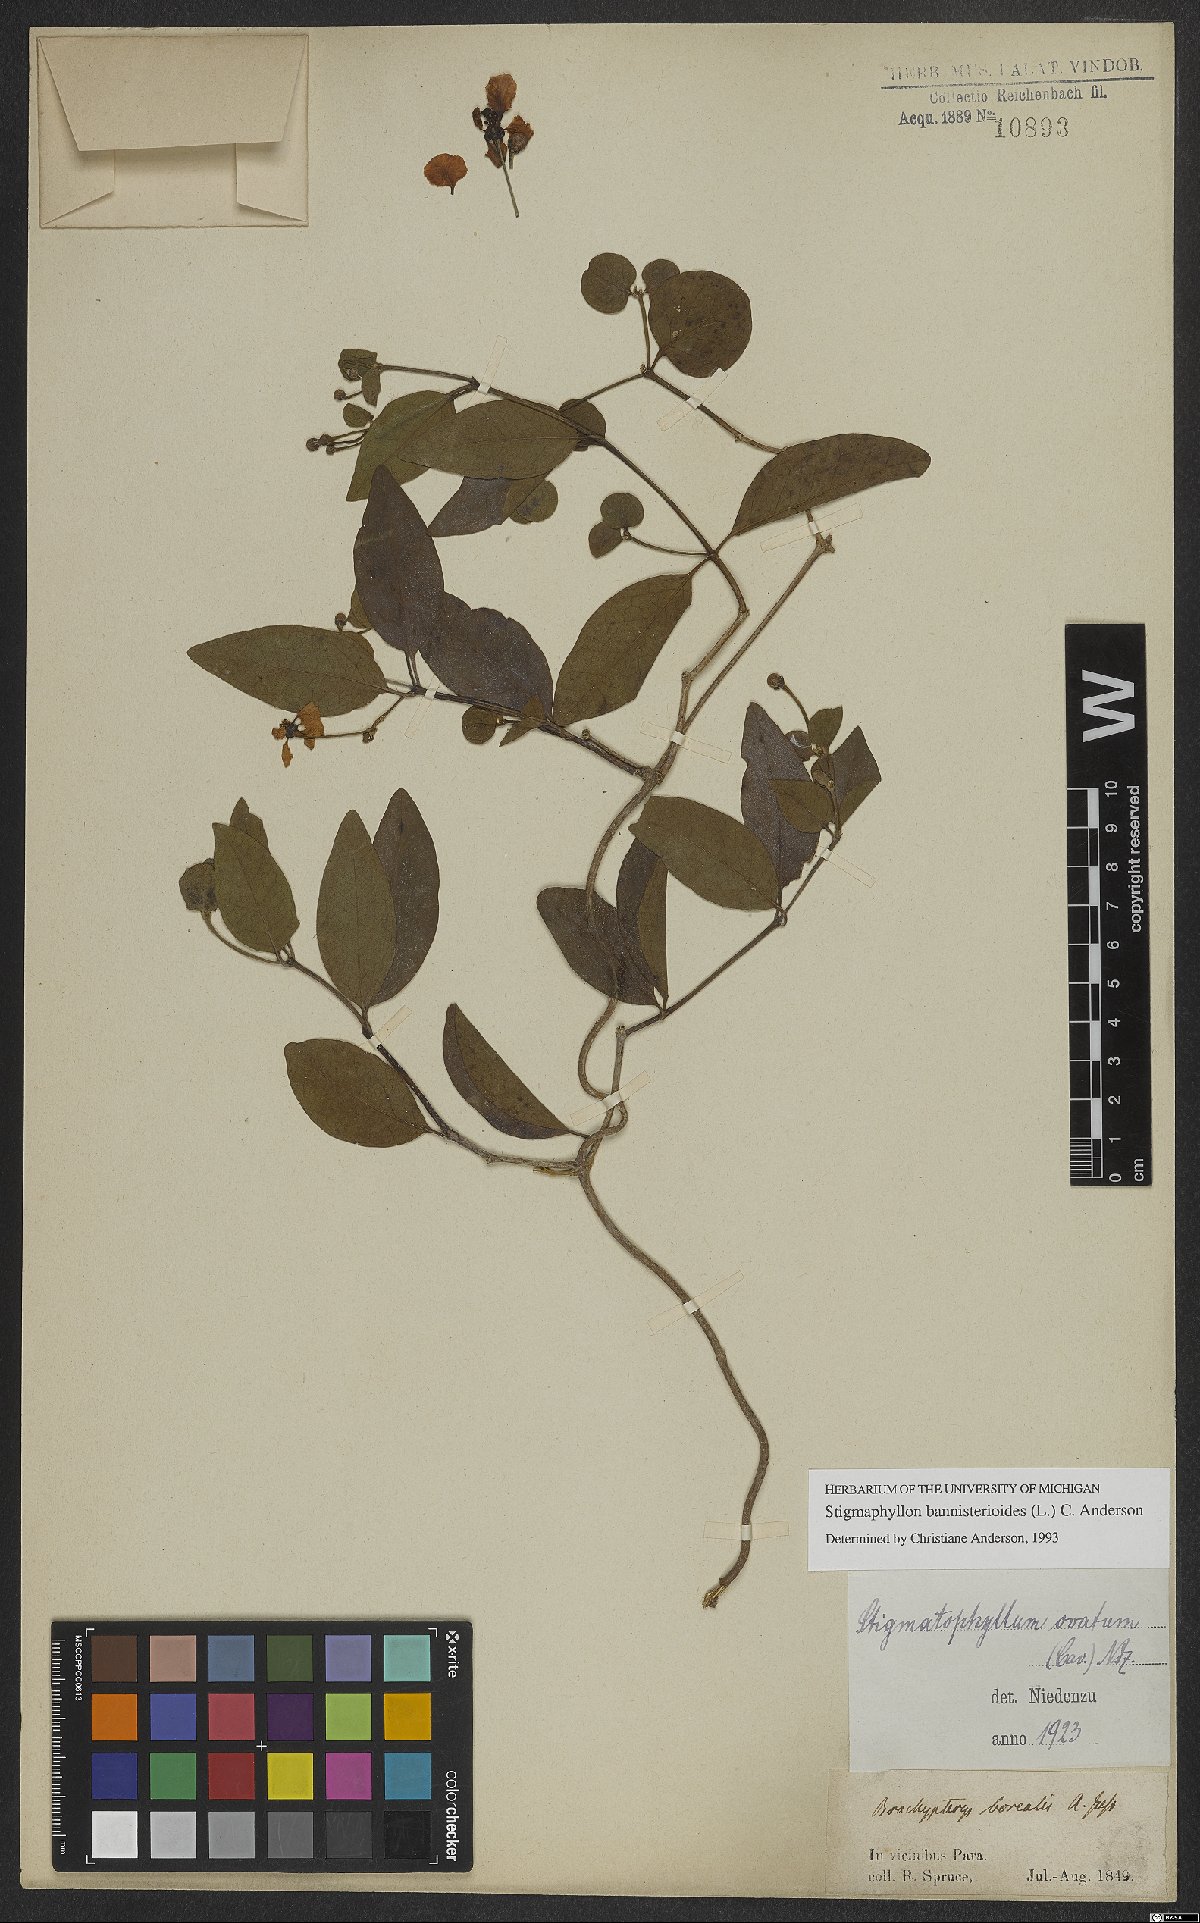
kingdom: Plantae
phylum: Tracheophyta
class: Magnoliopsida
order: Malpighiales
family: Malpighiaceae
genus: Stigmaphyllon
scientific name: Stigmaphyllon bannisterioides
